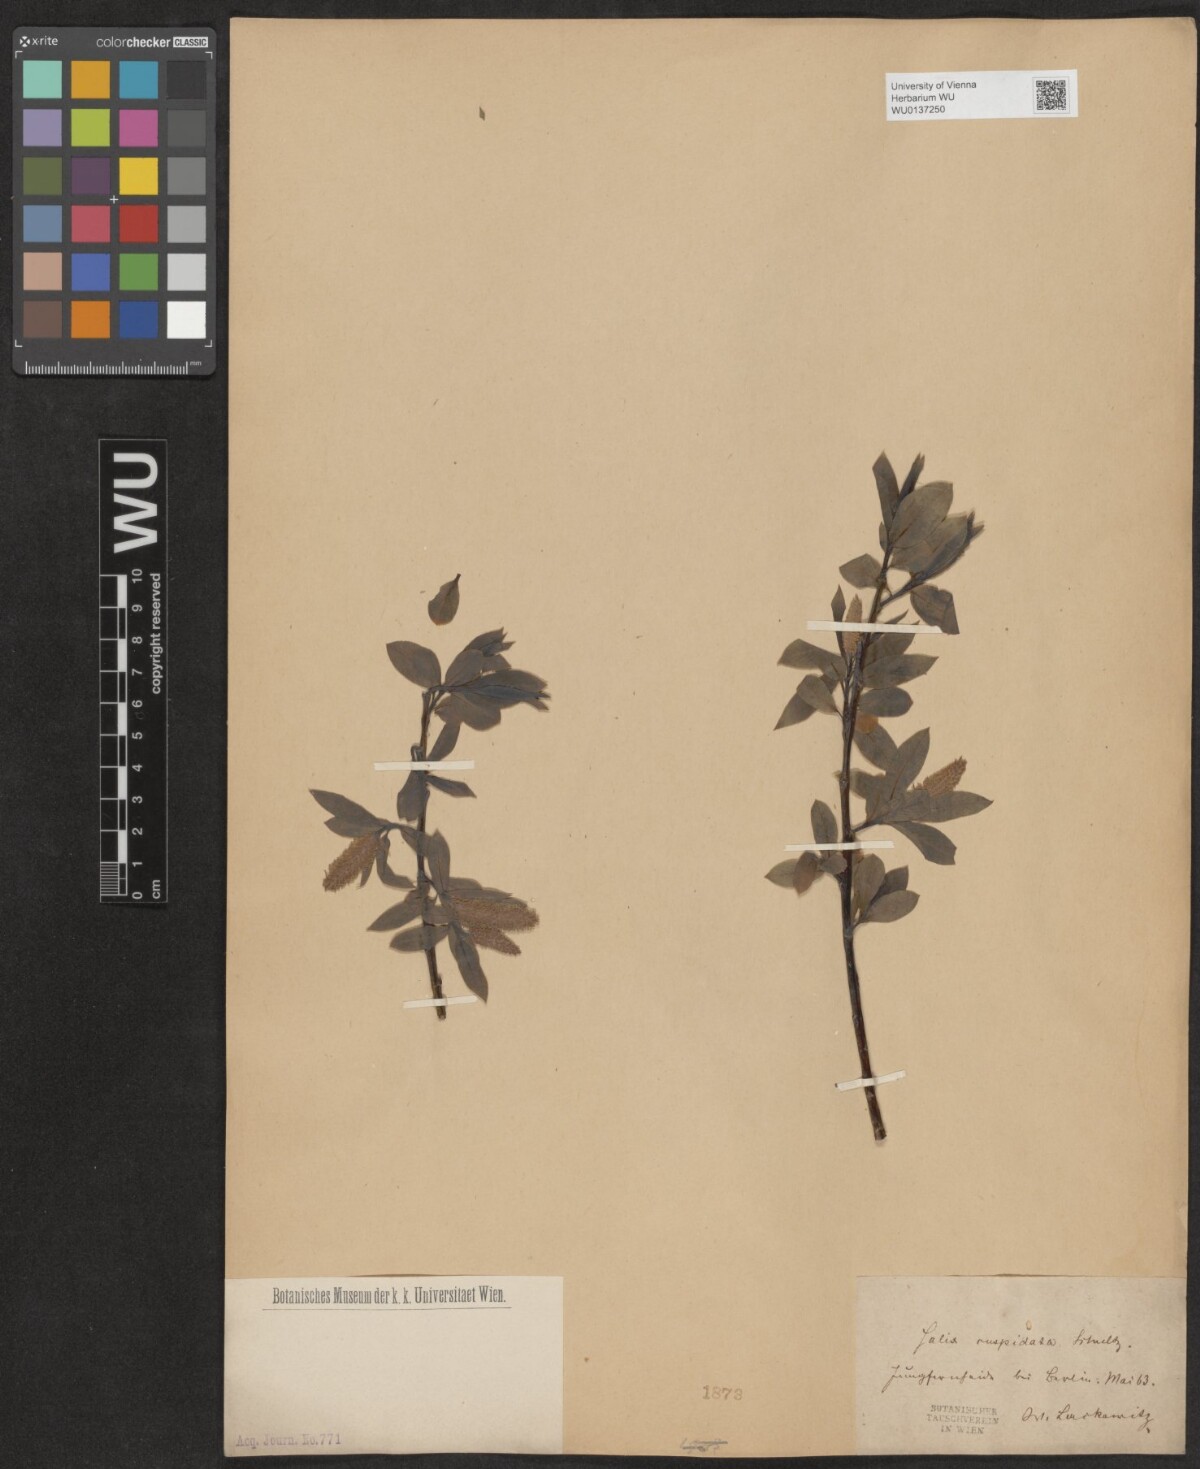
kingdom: Plantae
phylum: Tracheophyta
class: Magnoliopsida
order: Malpighiales
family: Salicaceae
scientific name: Salicaceae
